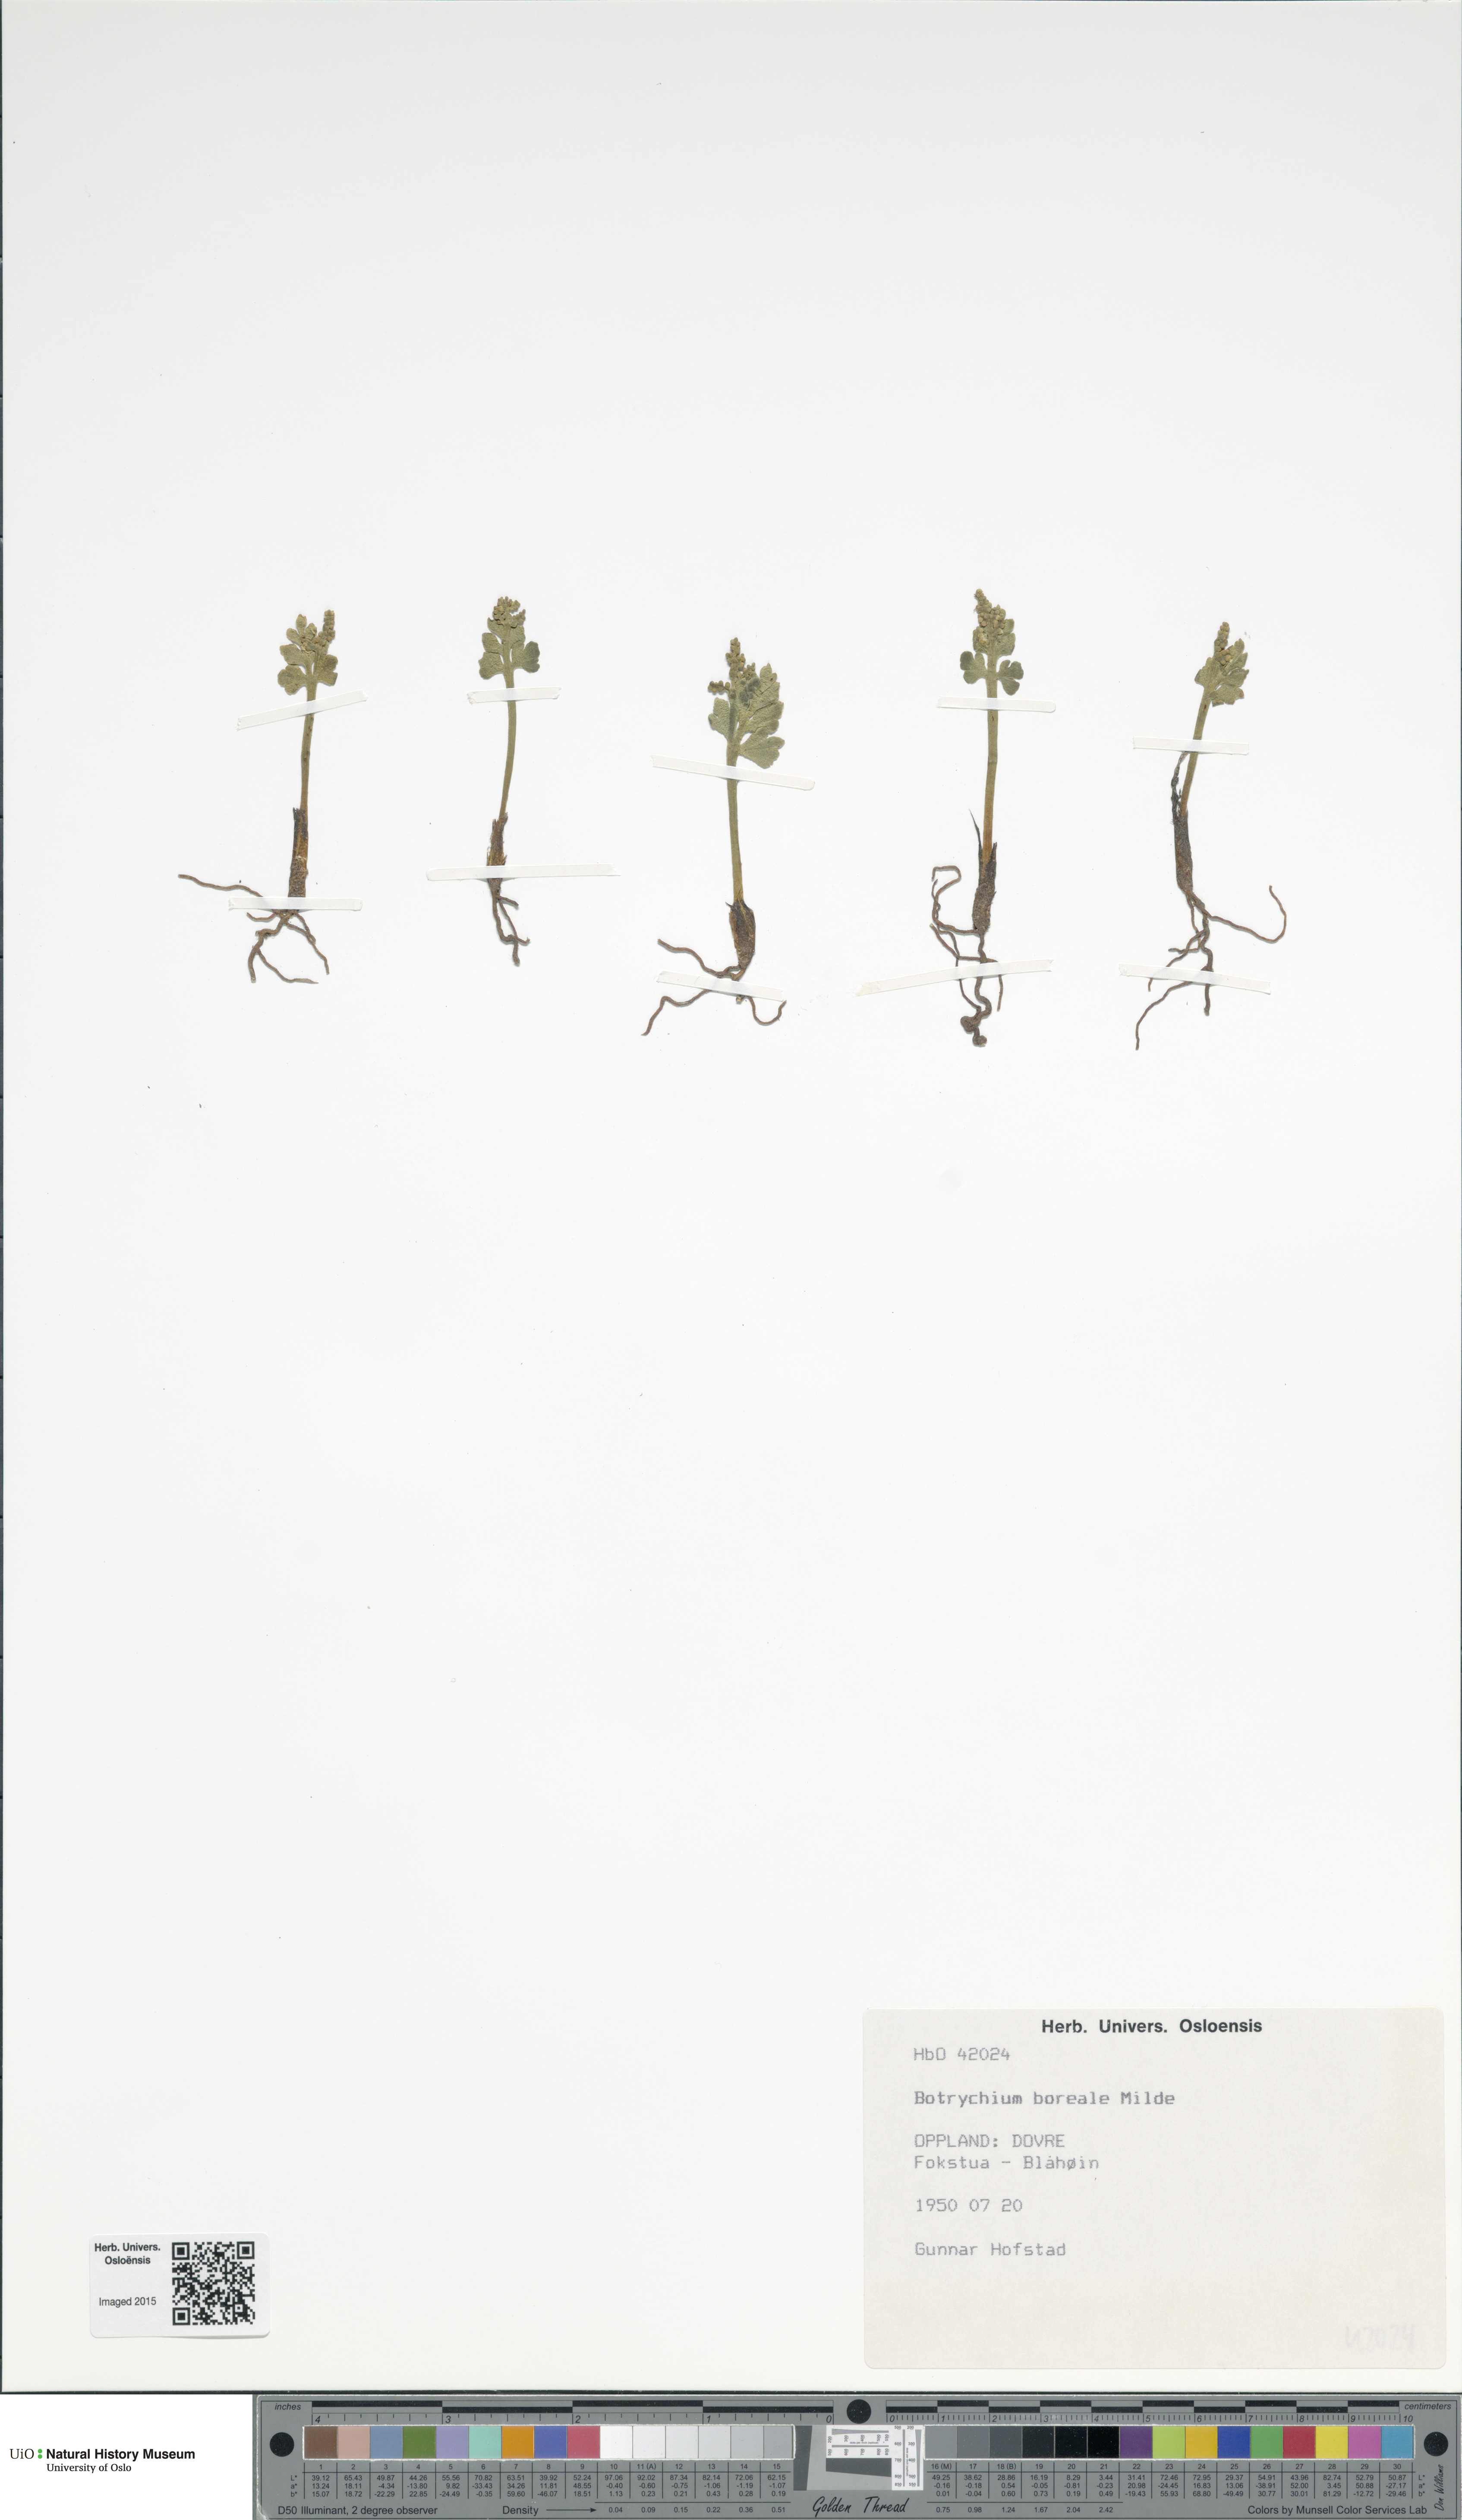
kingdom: Plantae
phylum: Tracheophyta
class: Polypodiopsida
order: Ophioglossales
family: Ophioglossaceae
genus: Botrychium
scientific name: Botrychium boreale
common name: Boreal moonwort
